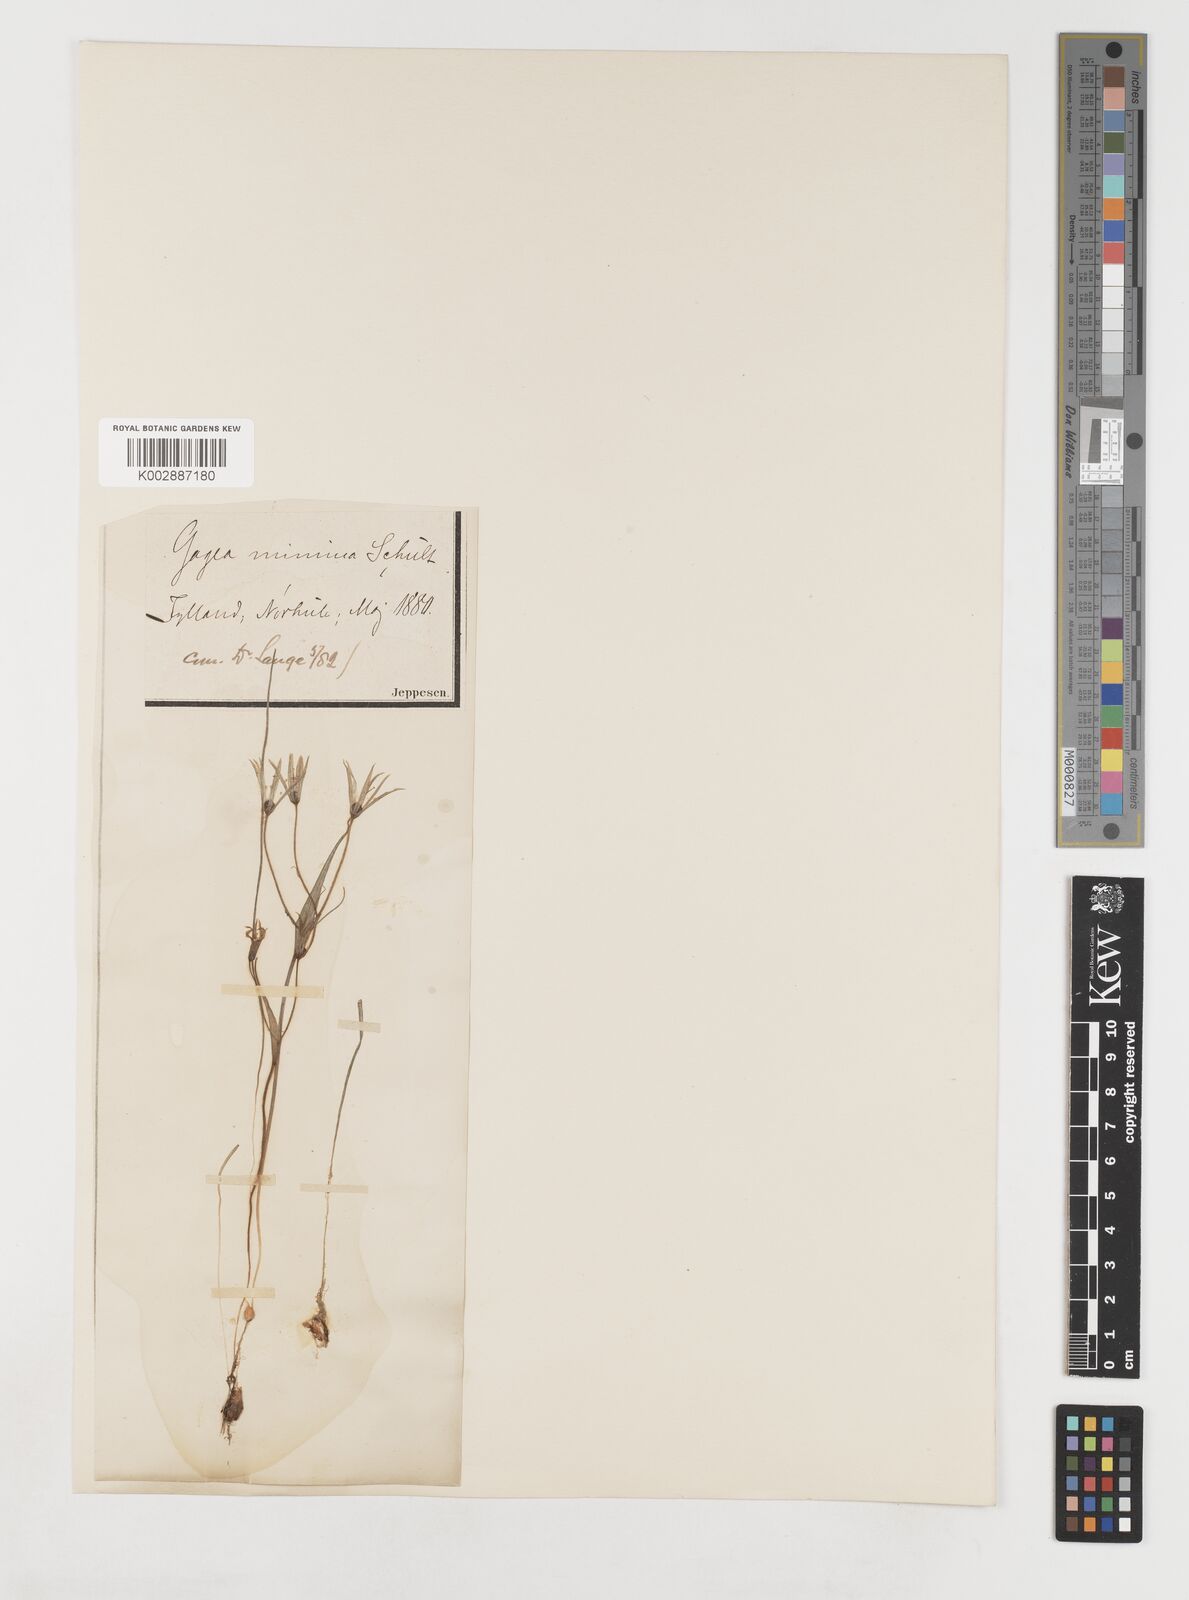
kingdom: Plantae
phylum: Tracheophyta
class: Liliopsida
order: Liliales
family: Liliaceae
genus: Gagea
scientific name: Gagea minima
